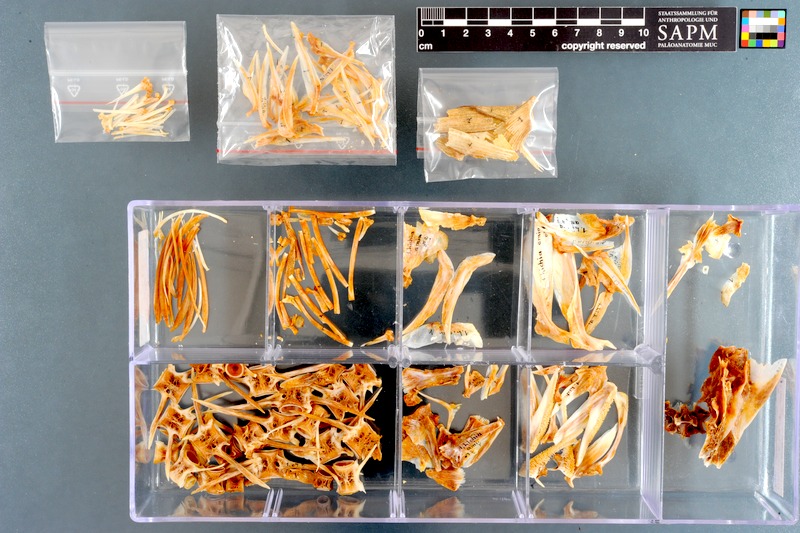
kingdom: Animalia
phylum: Chordata
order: Perciformes
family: Carangidae
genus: Lichia
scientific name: Lichia amia
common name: Leerfish
